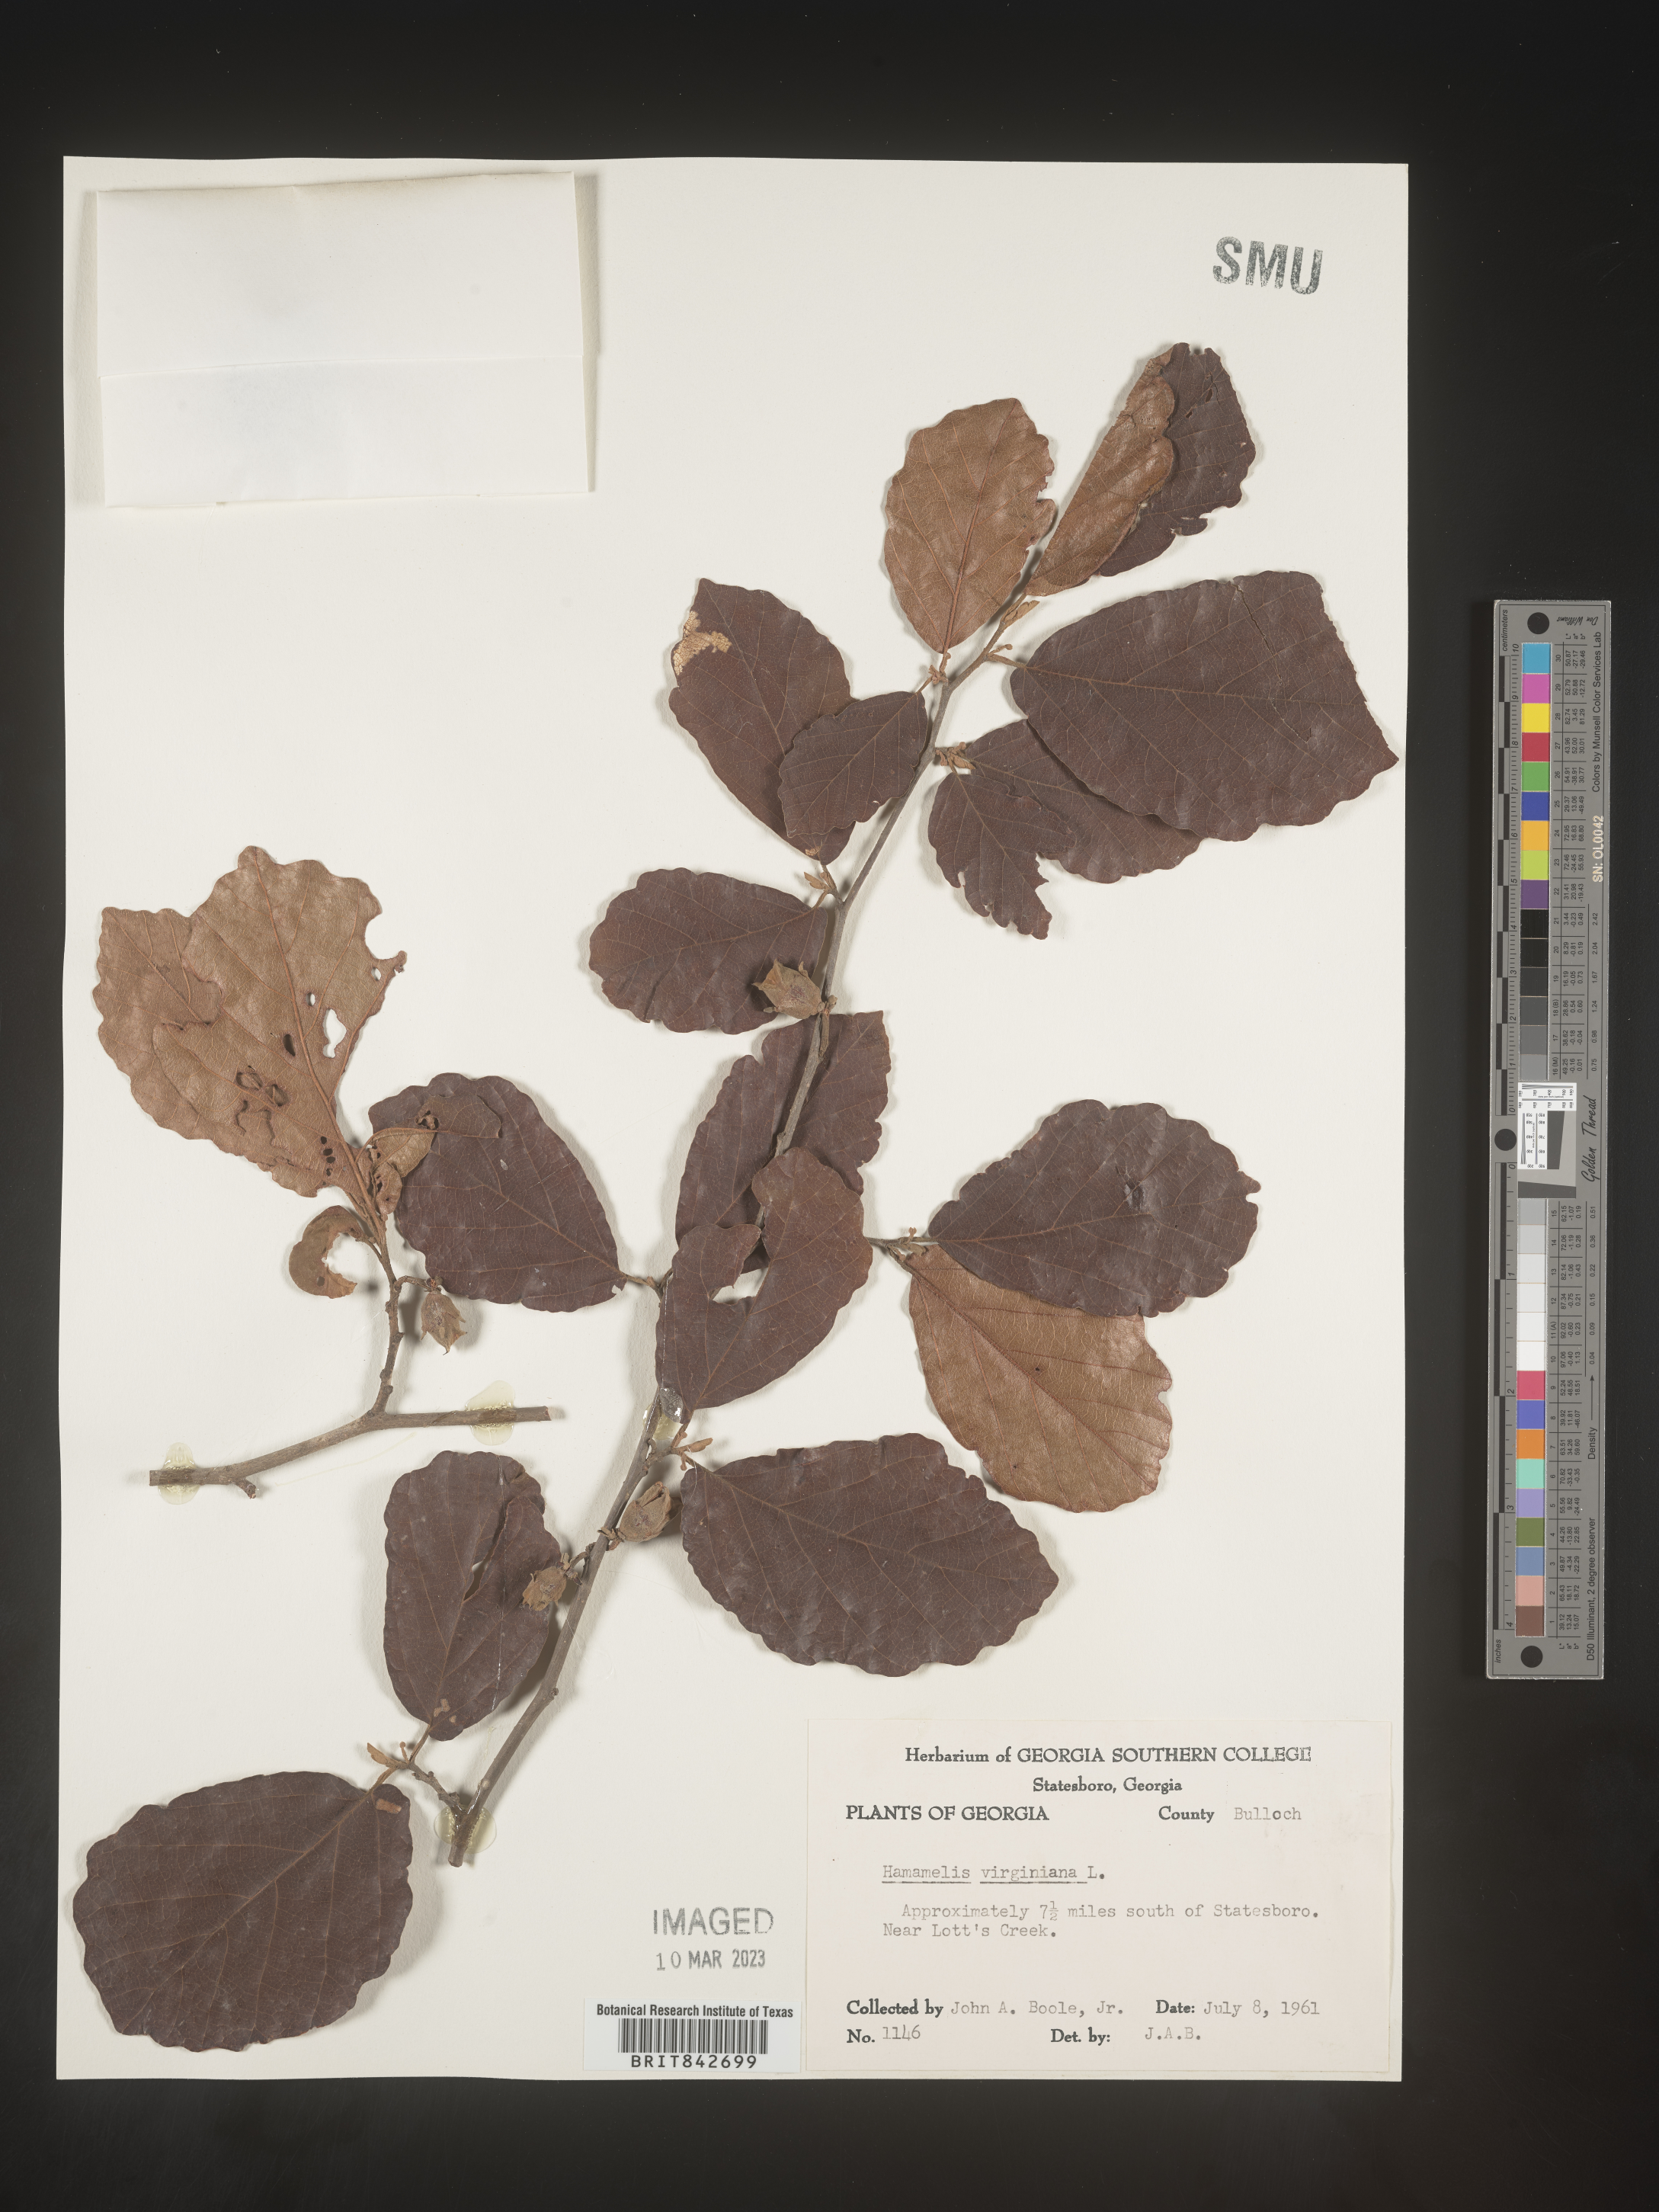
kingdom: Plantae
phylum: Tracheophyta
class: Magnoliopsida
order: Saxifragales
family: Hamamelidaceae
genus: Hamamelis
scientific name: Hamamelis virginiana
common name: Witch-hazel
